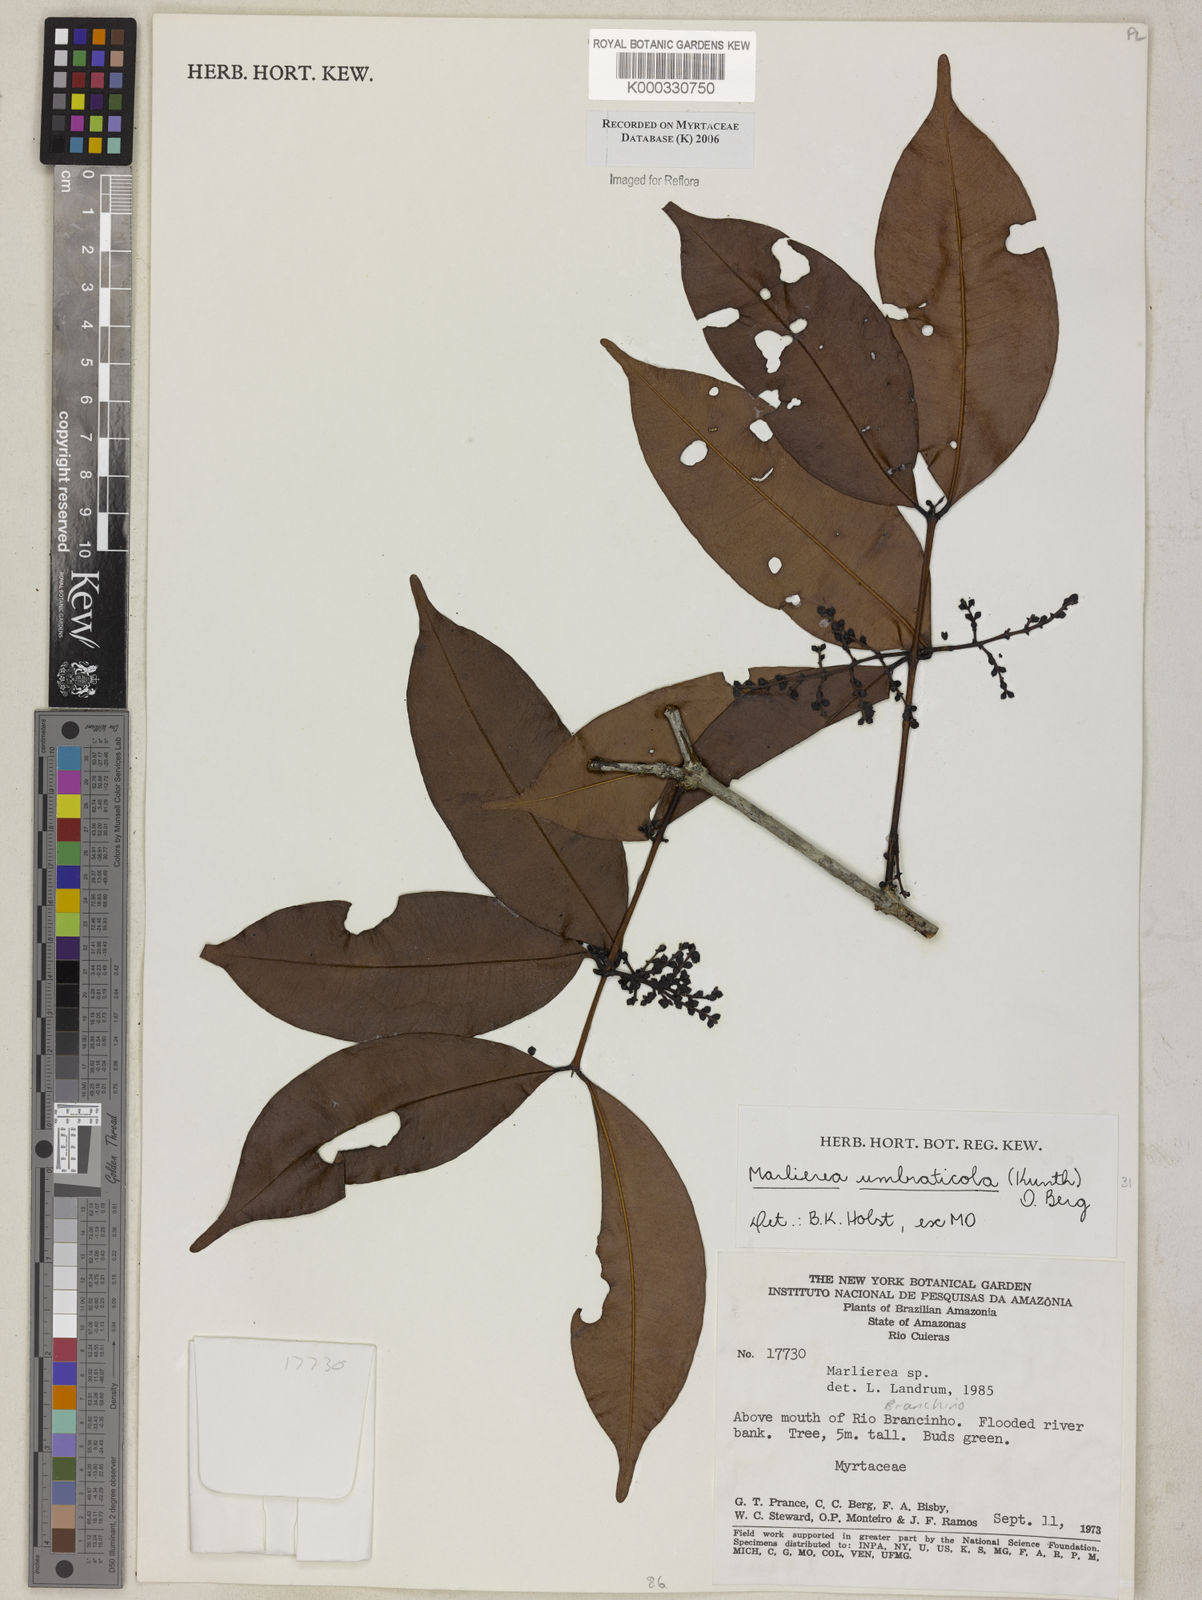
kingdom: Plantae
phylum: Tracheophyta
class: Magnoliopsida
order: Myrtales
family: Myrtaceae
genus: Myrcia
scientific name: Myrcia umbraticola
